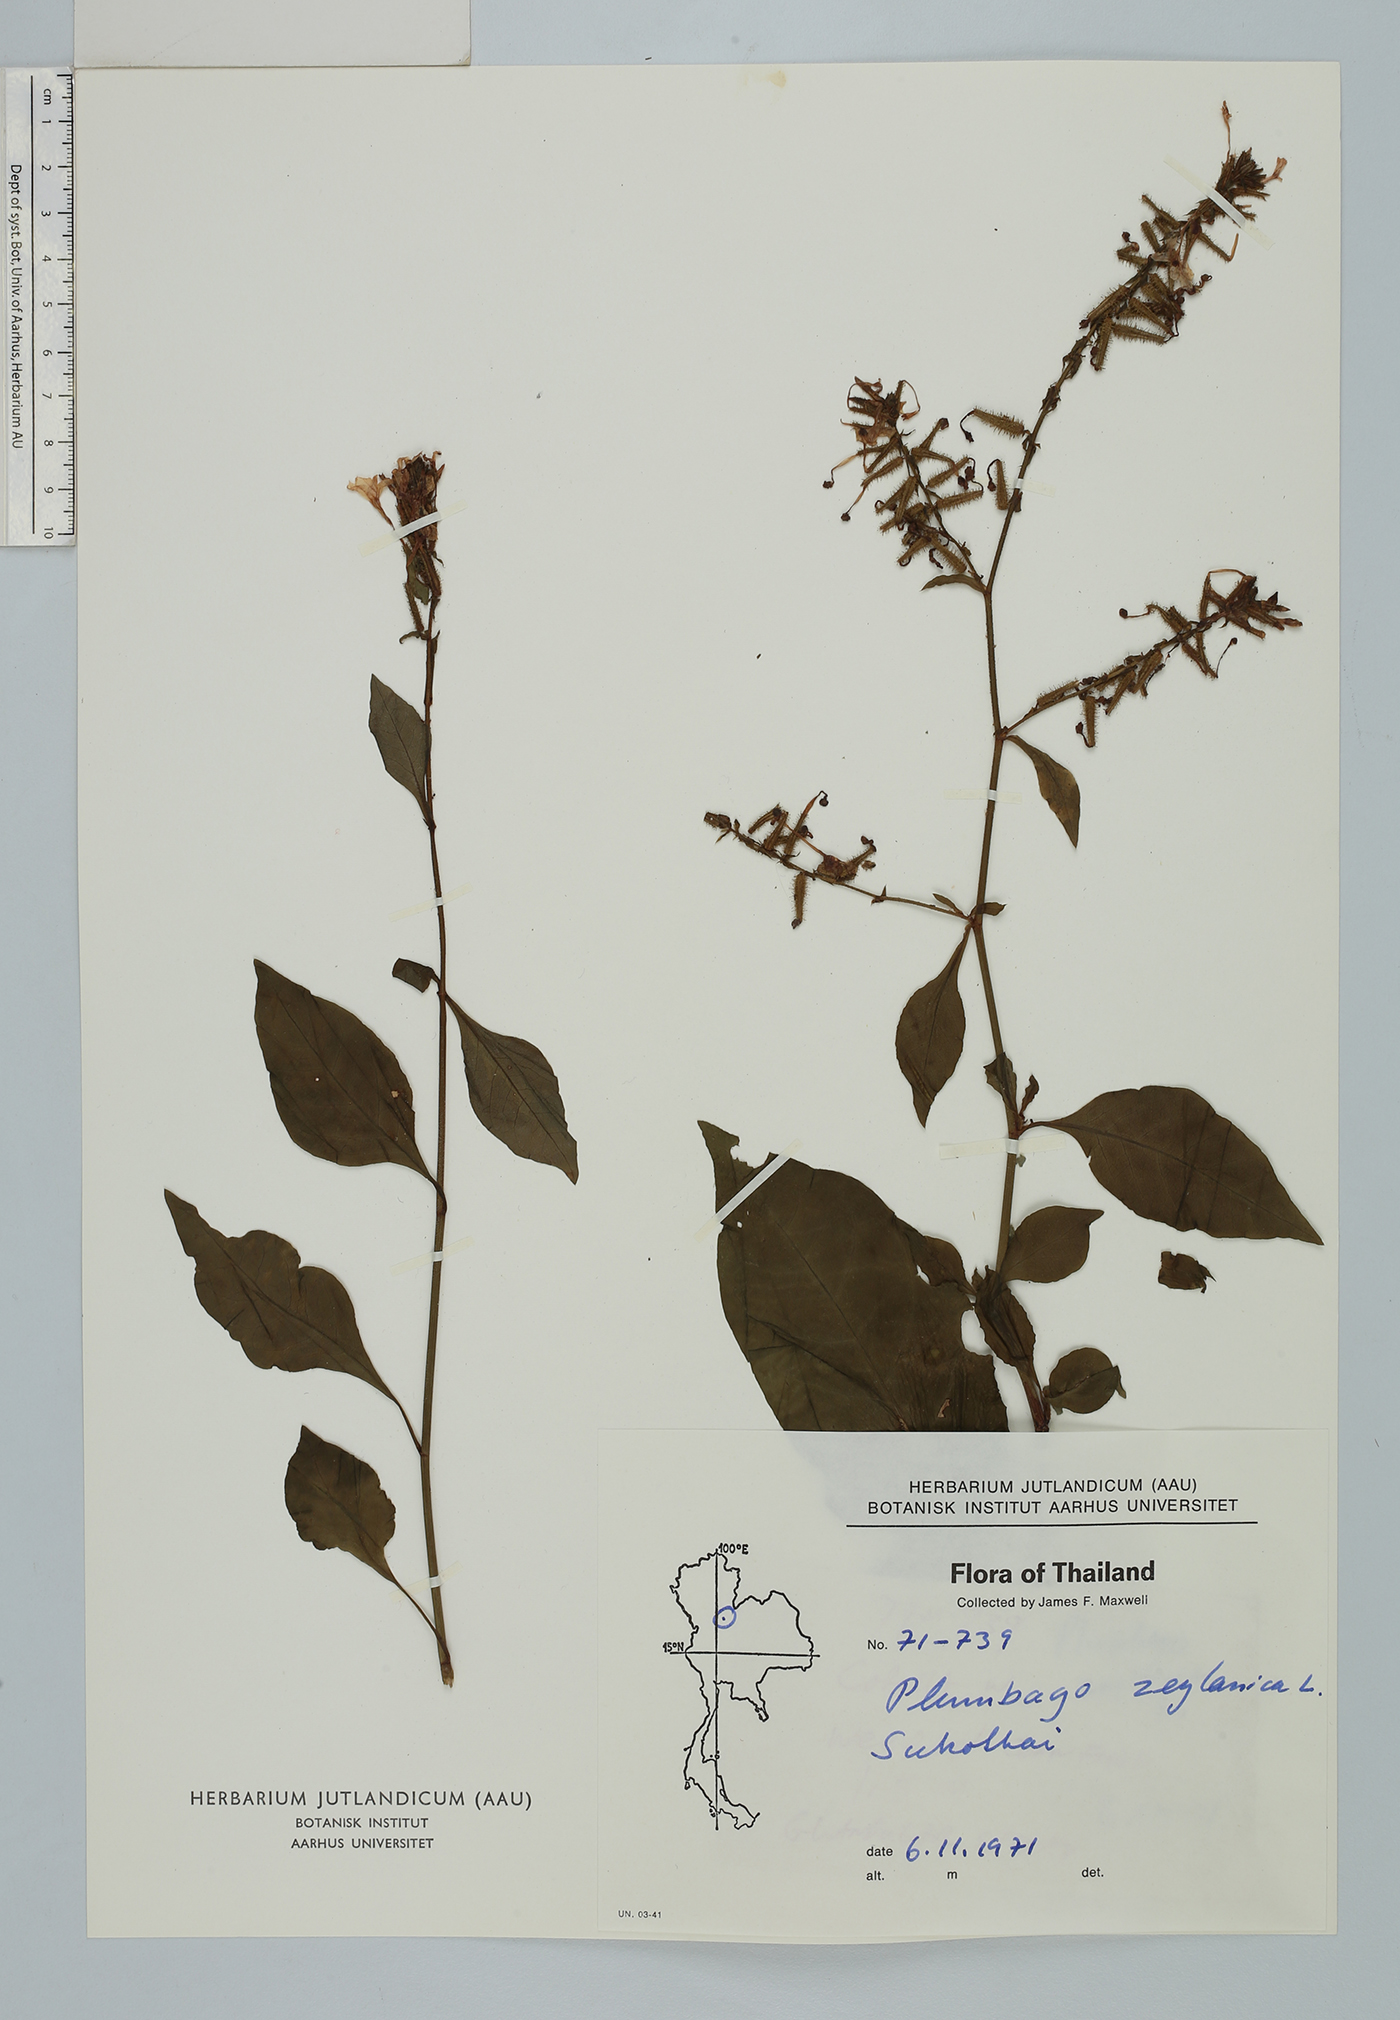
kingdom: Plantae
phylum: Tracheophyta
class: Magnoliopsida
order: Caryophyllales
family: Plumbaginaceae
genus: Plumbago
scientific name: Plumbago zeylanica
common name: Doctorbush
